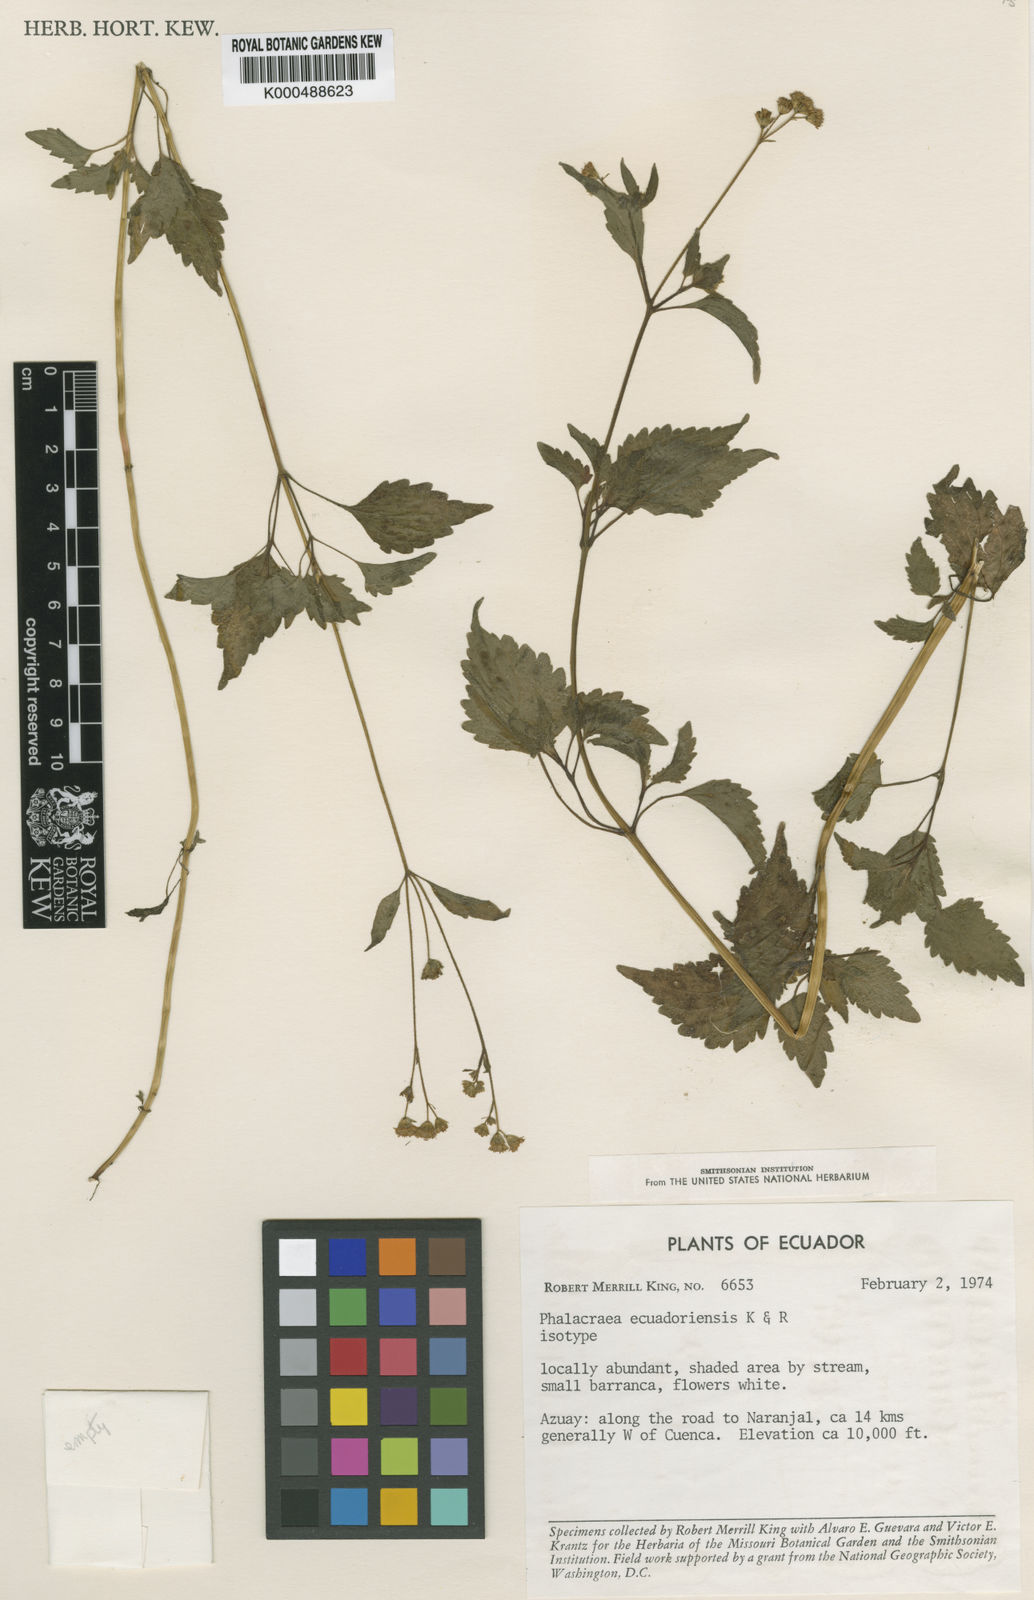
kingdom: Plantae
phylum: Tracheophyta
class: Magnoliopsida
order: Asterales
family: Asteraceae
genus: Phalacraea
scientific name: Phalacraea ecuadorensis
